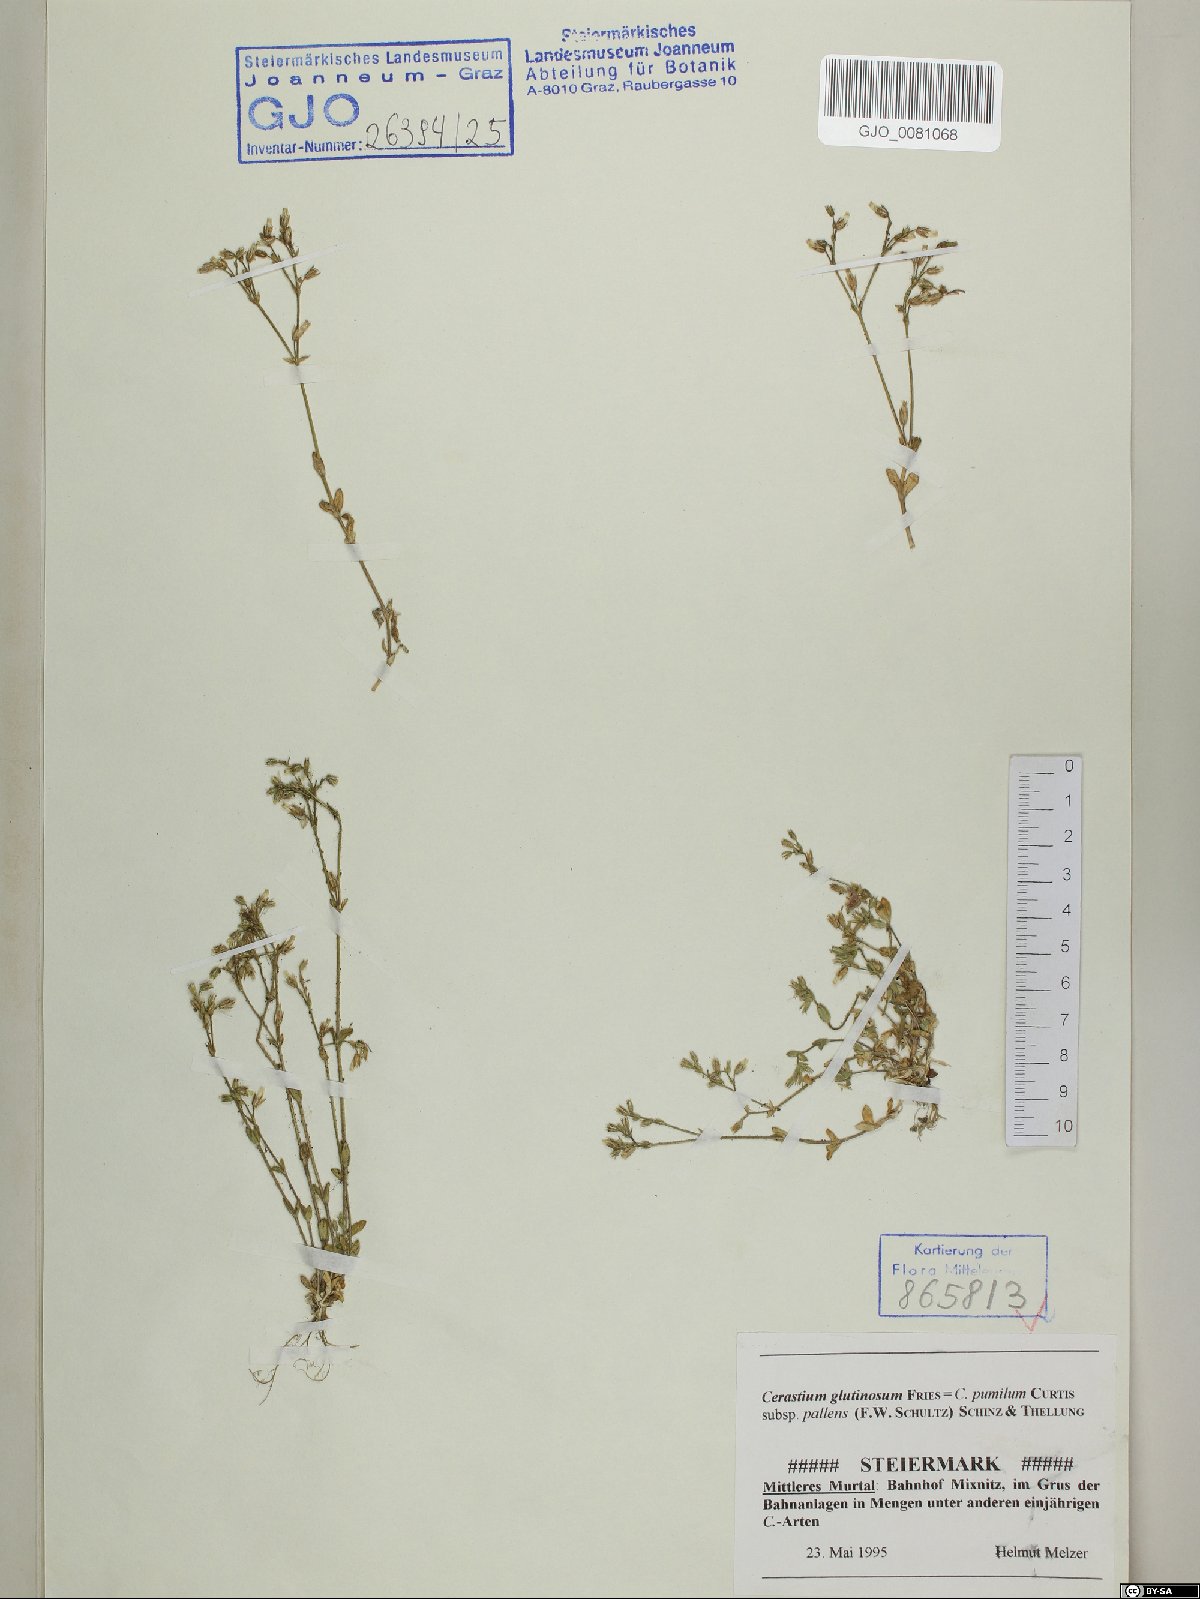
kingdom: Plantae
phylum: Tracheophyta
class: Magnoliopsida
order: Caryophyllales
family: Caryophyllaceae
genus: Cerastium
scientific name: Cerastium glutinosum
